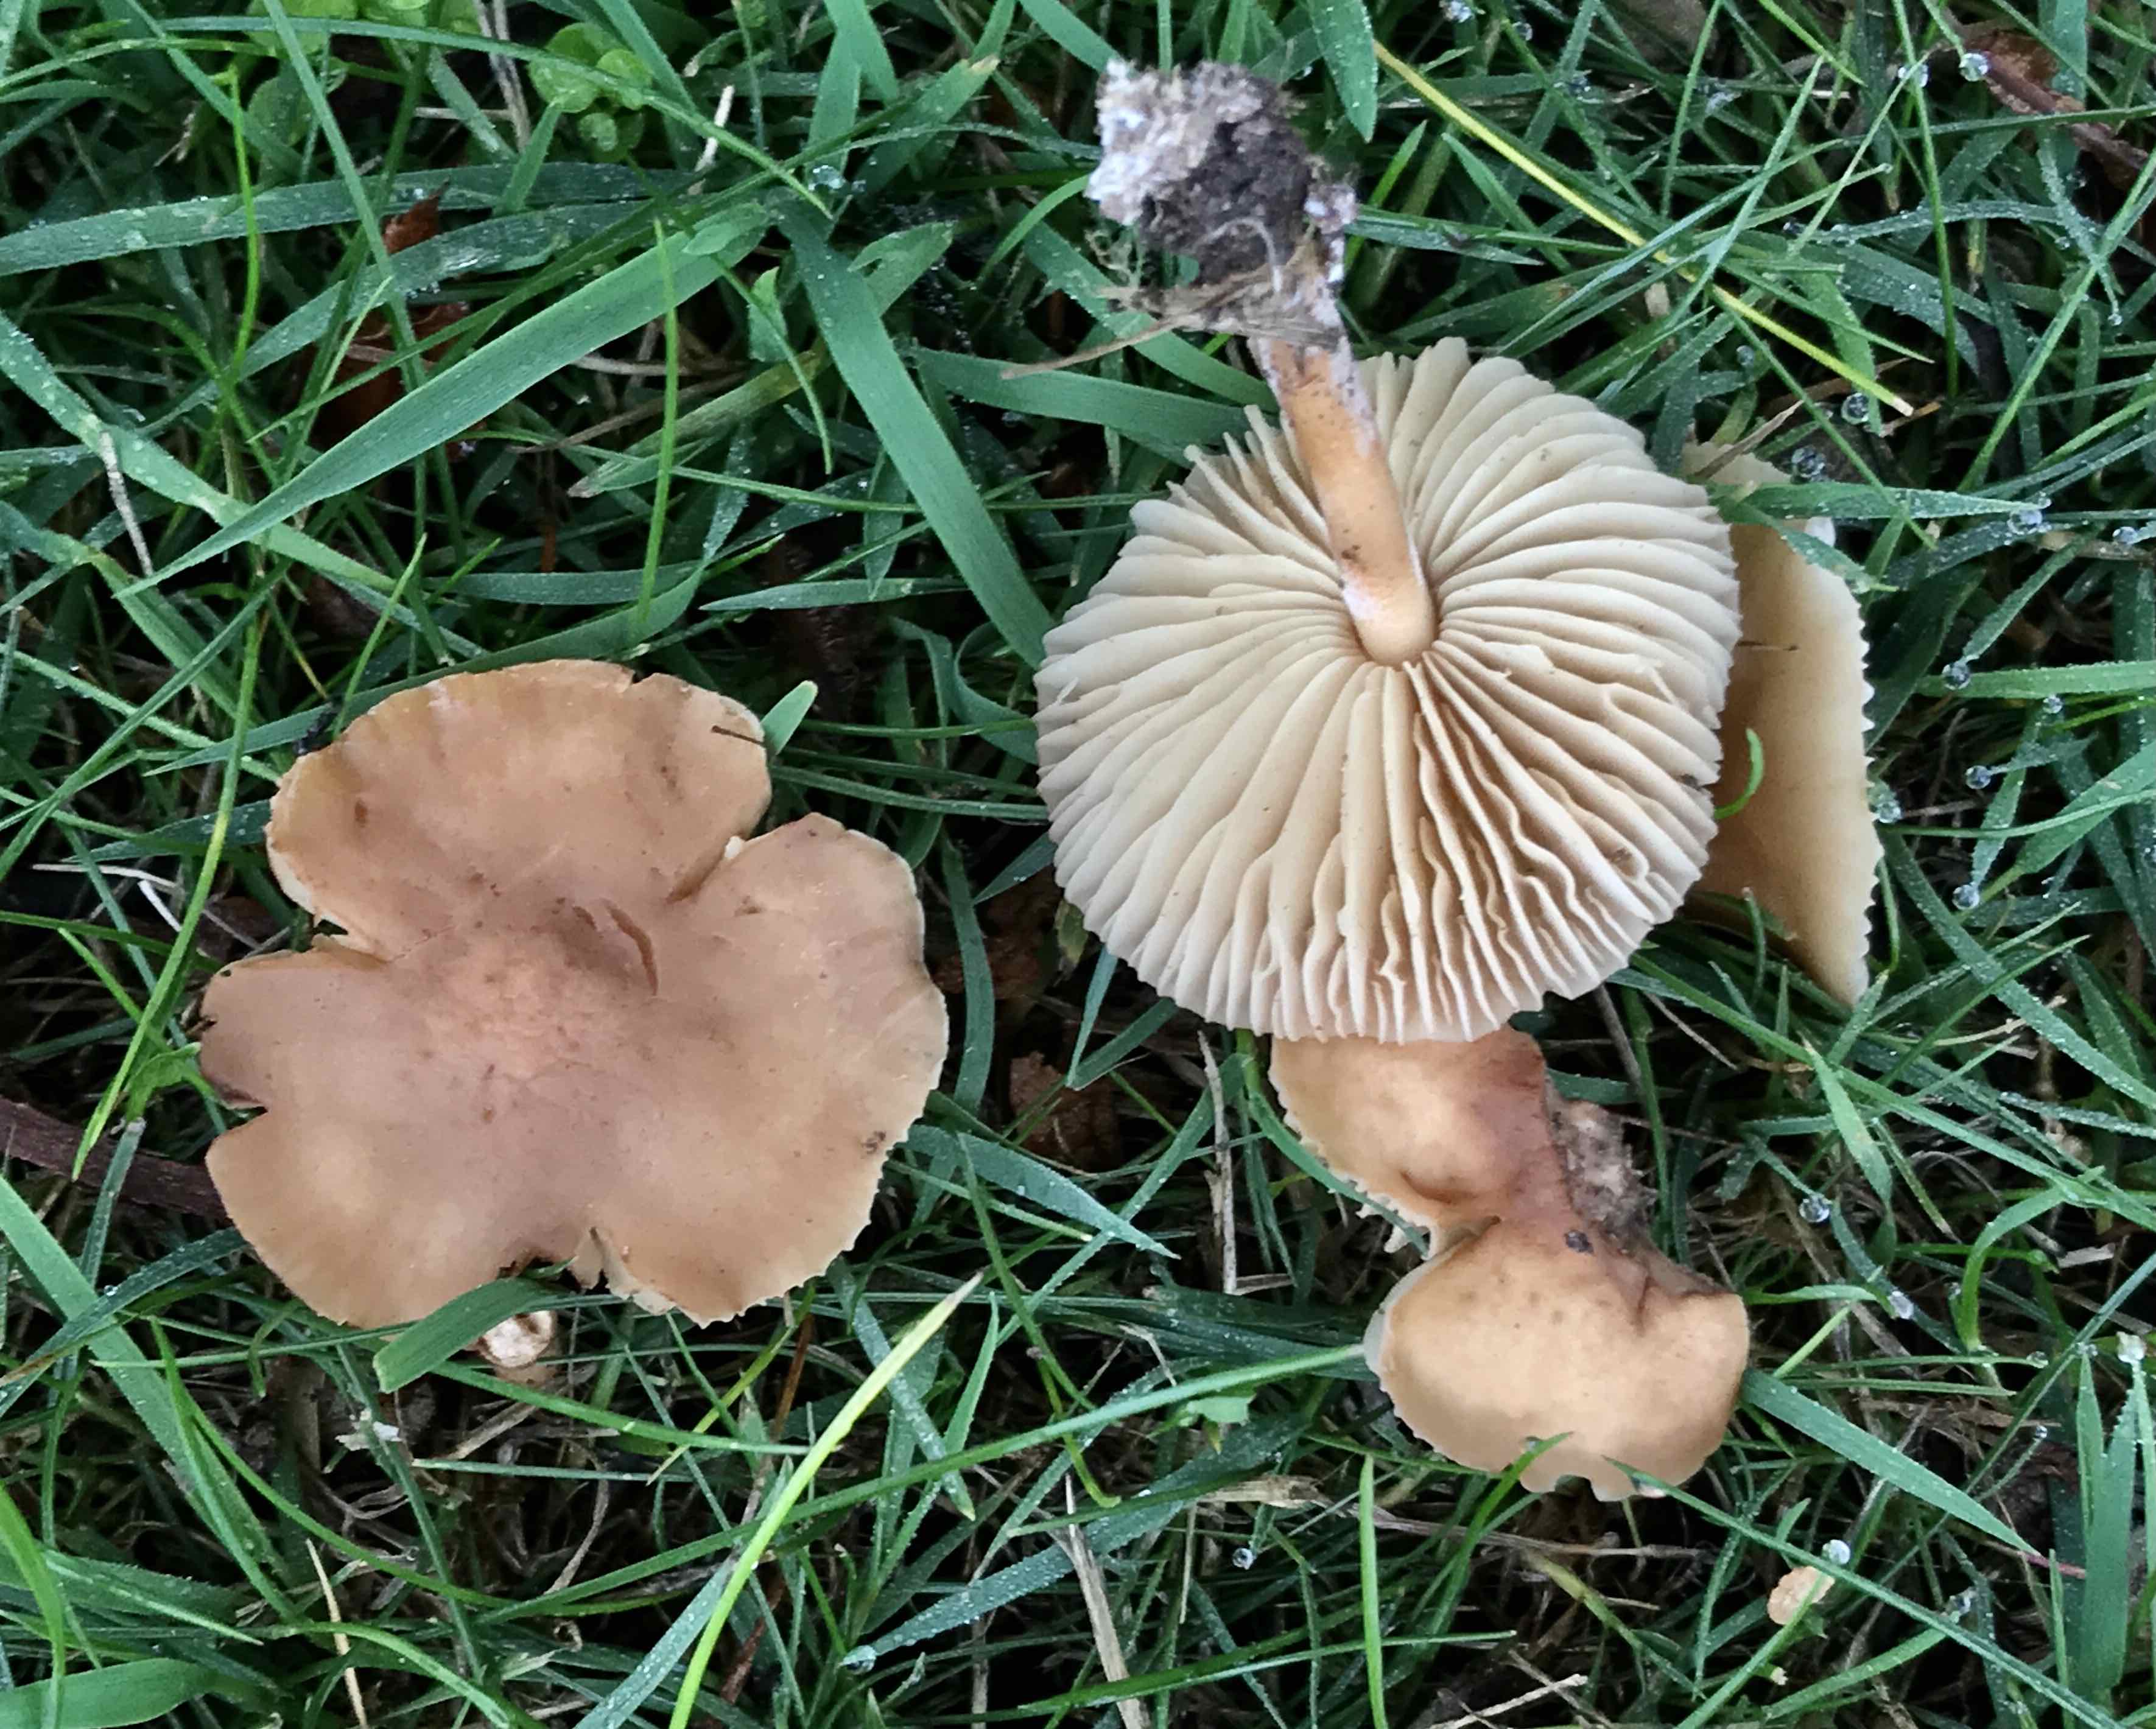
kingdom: Fungi
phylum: Basidiomycota
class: Agaricomycetes
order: Agaricales
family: Marasmiaceae
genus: Marasmius
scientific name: Marasmius oreades
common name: elledans-bruskhat
